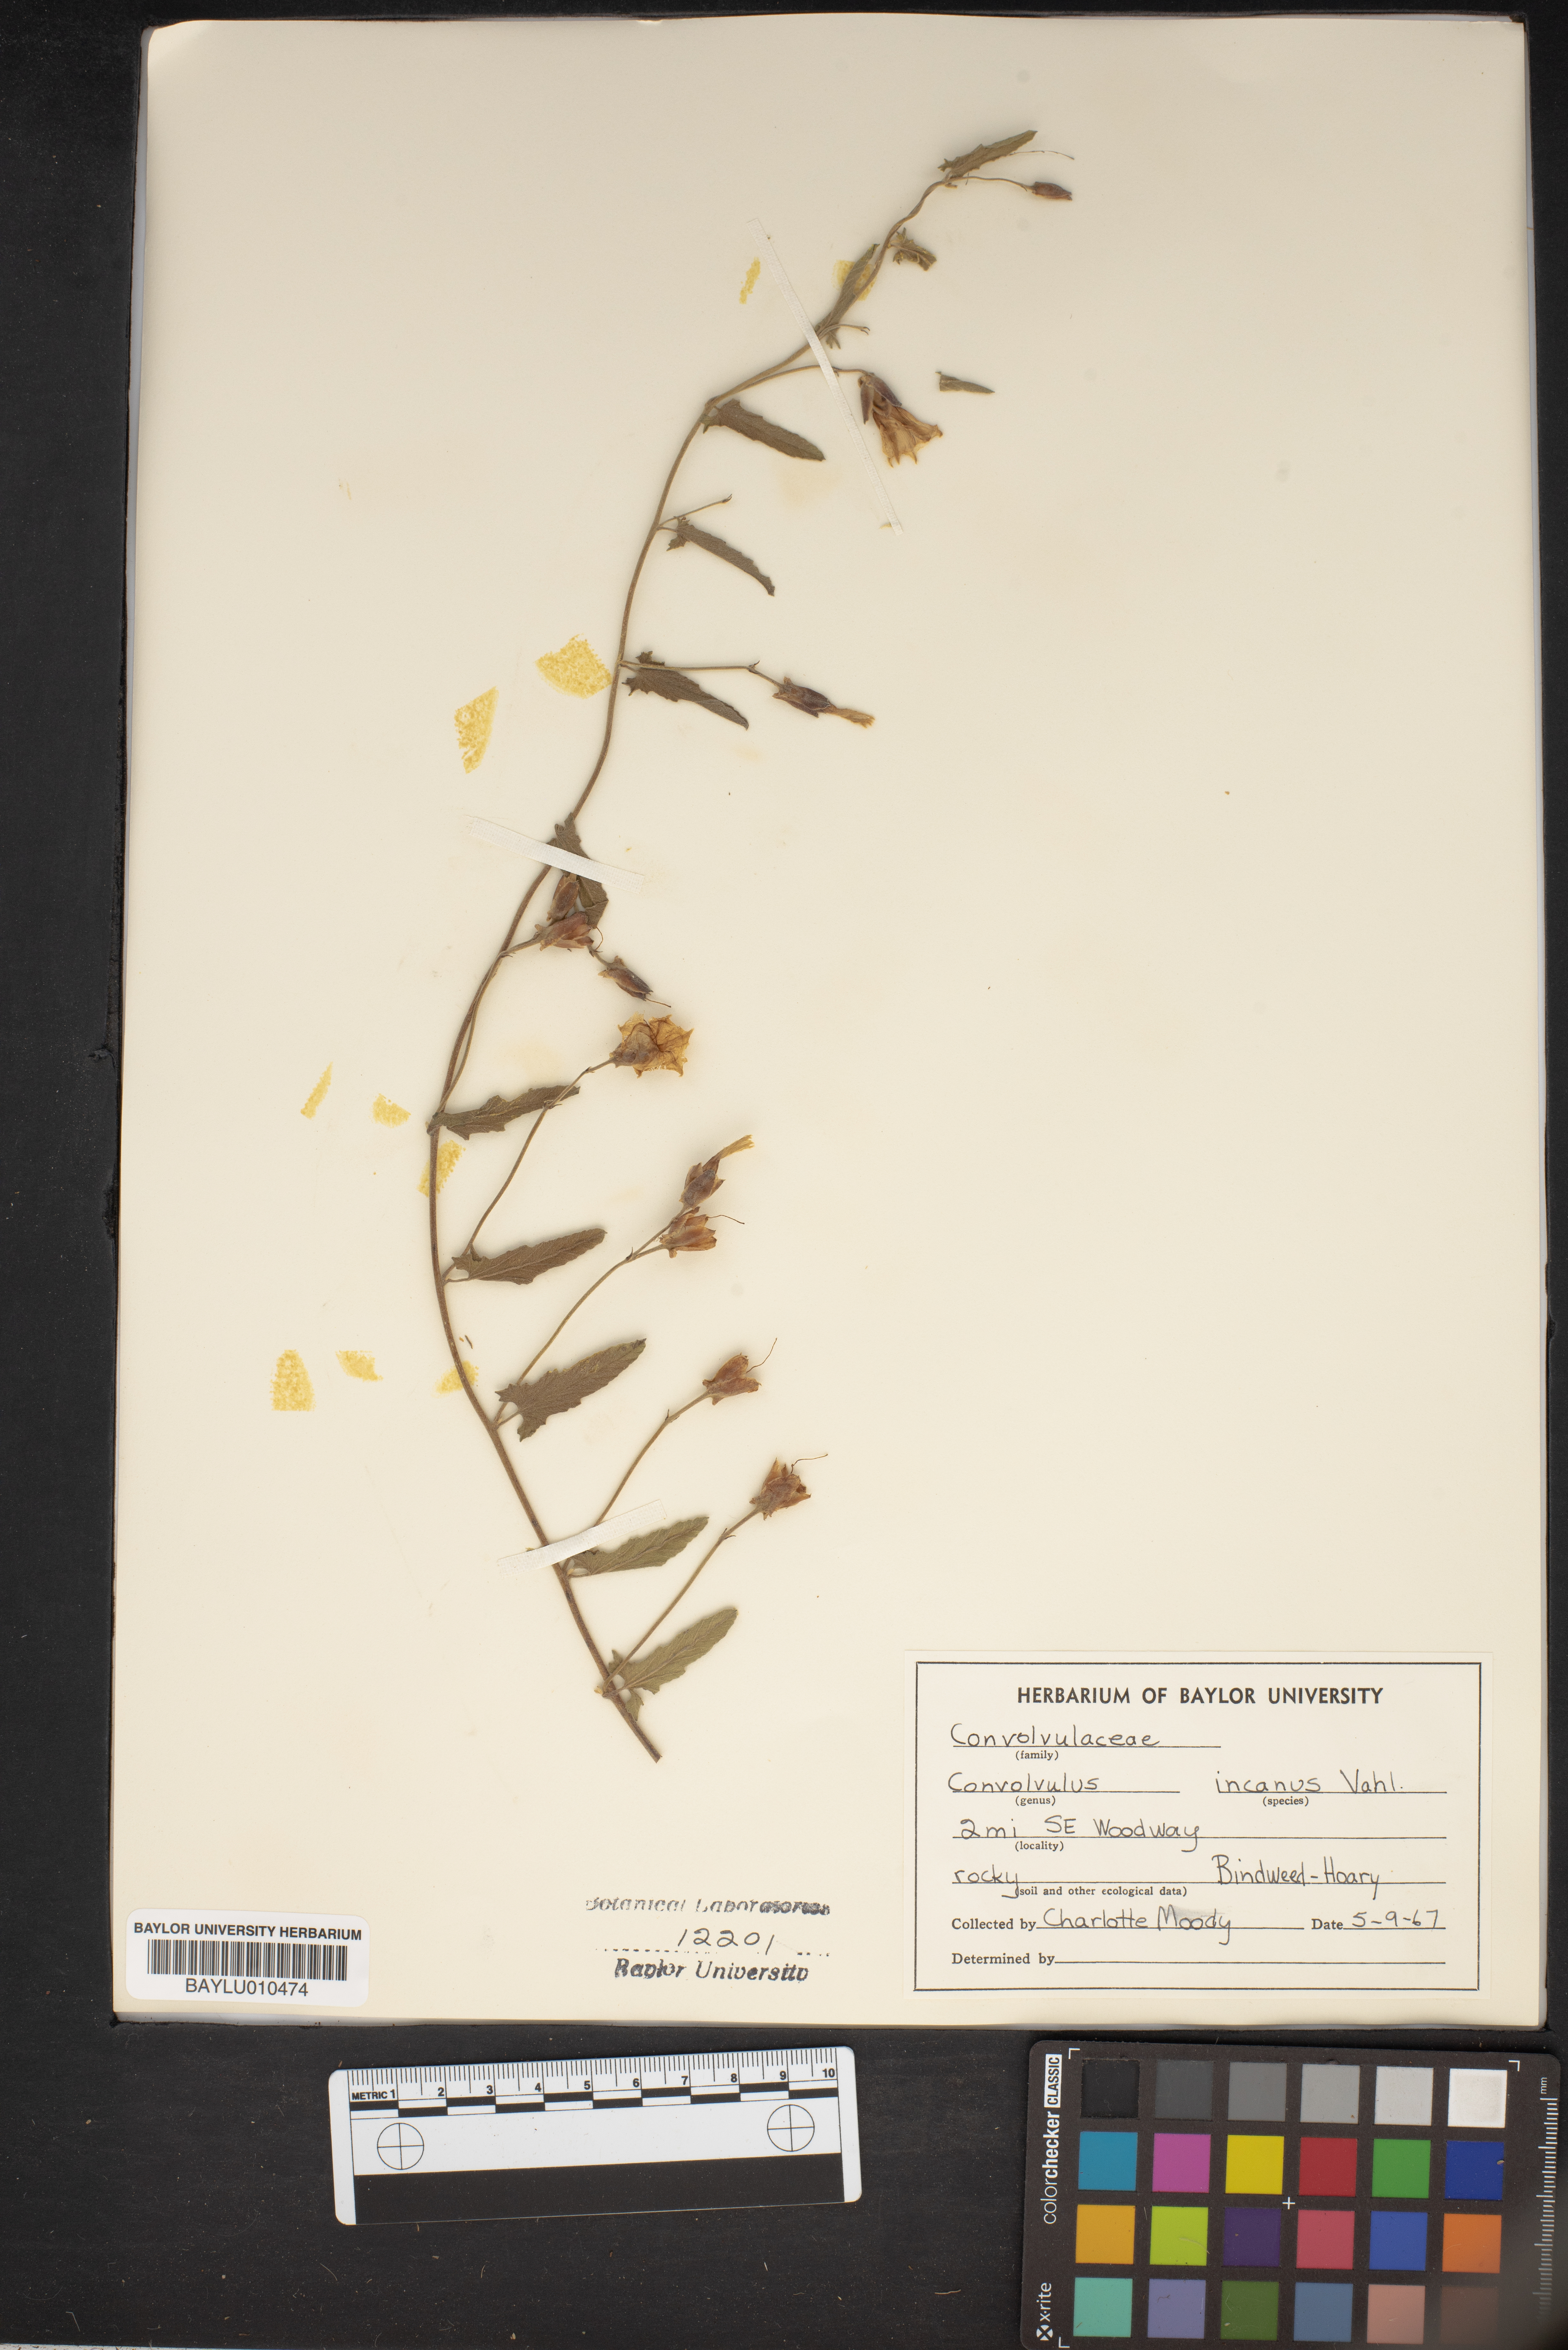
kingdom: Plantae
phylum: Tracheophyta
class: Magnoliopsida
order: Solanales
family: Convolvulaceae
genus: Convolvulus
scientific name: Convolvulus hermanniae
